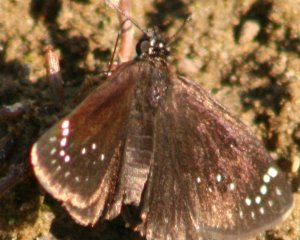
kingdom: Animalia
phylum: Arthropoda
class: Insecta
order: Lepidoptera
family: Hesperiidae
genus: Pholisora
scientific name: Pholisora catullus
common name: Common Sootywing
